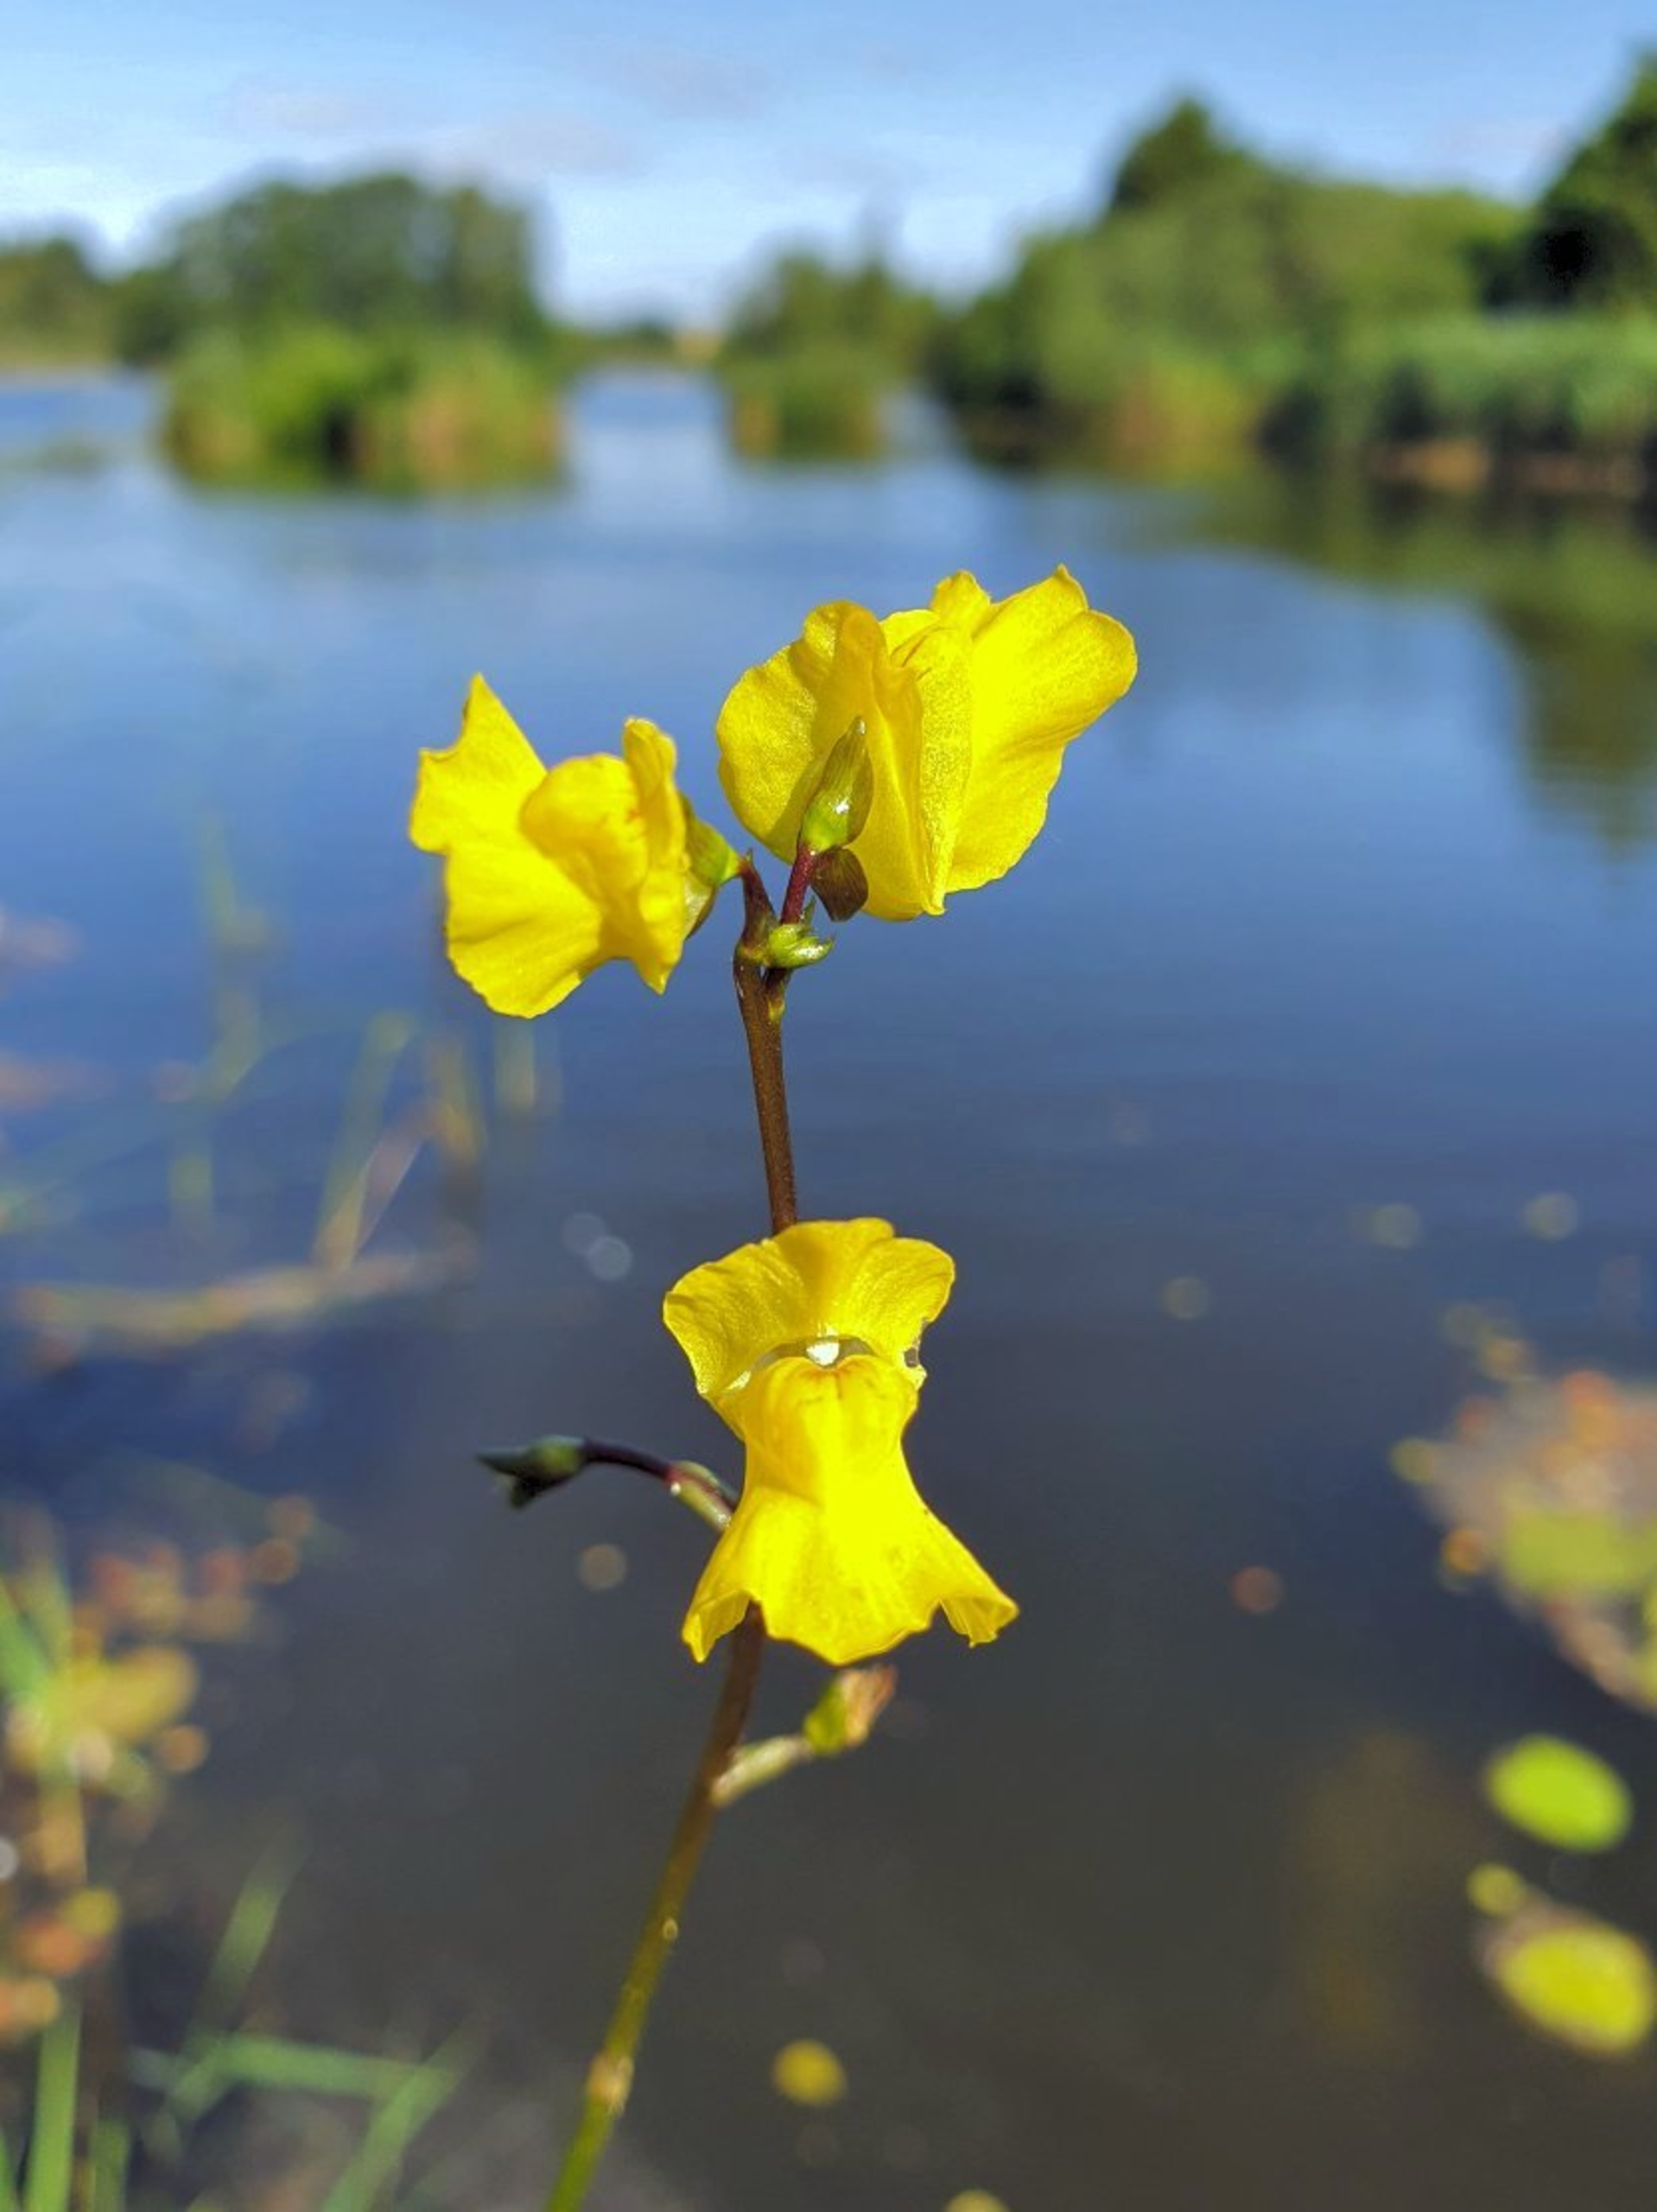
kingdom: Plantae
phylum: Tracheophyta
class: Magnoliopsida
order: Lamiales
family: Lentibulariaceae
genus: Utricularia
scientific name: Utricularia vulgaris
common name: Almindelig blærerod
